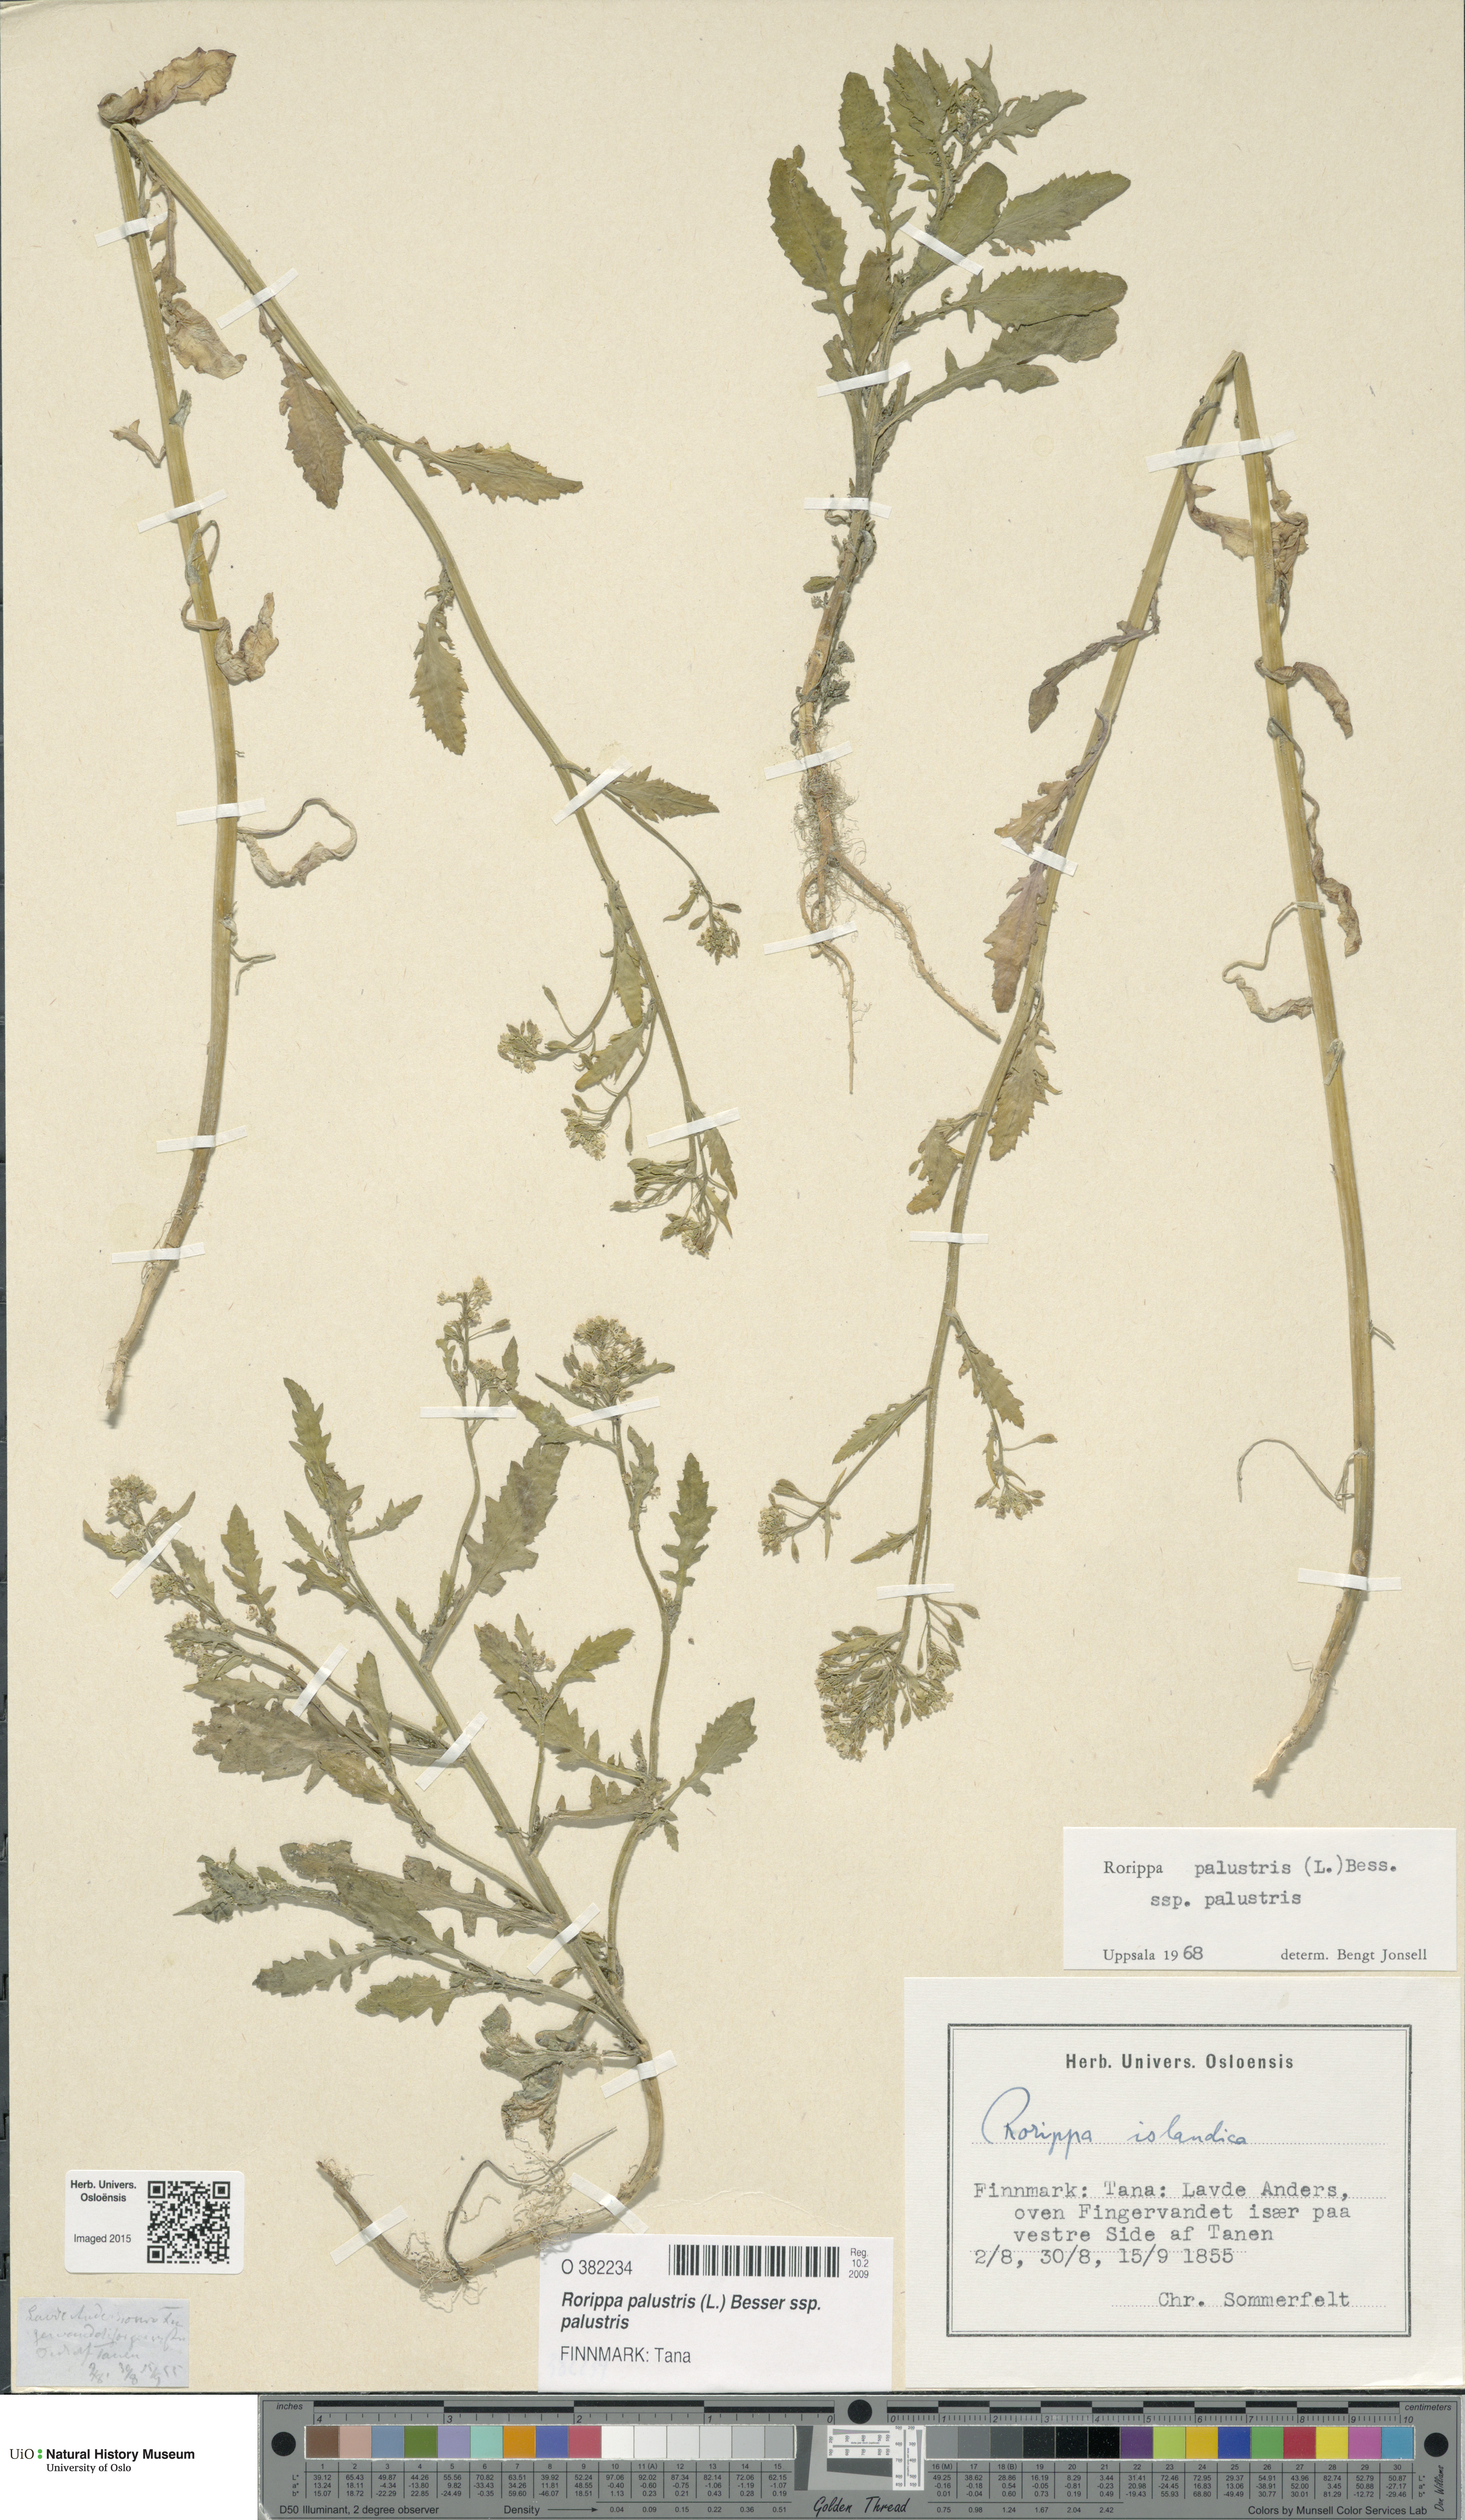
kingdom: Plantae
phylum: Tracheophyta
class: Magnoliopsida
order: Brassicales
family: Brassicaceae
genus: Rorippa
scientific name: Rorippa palustris
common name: Marsh yellow-cress
